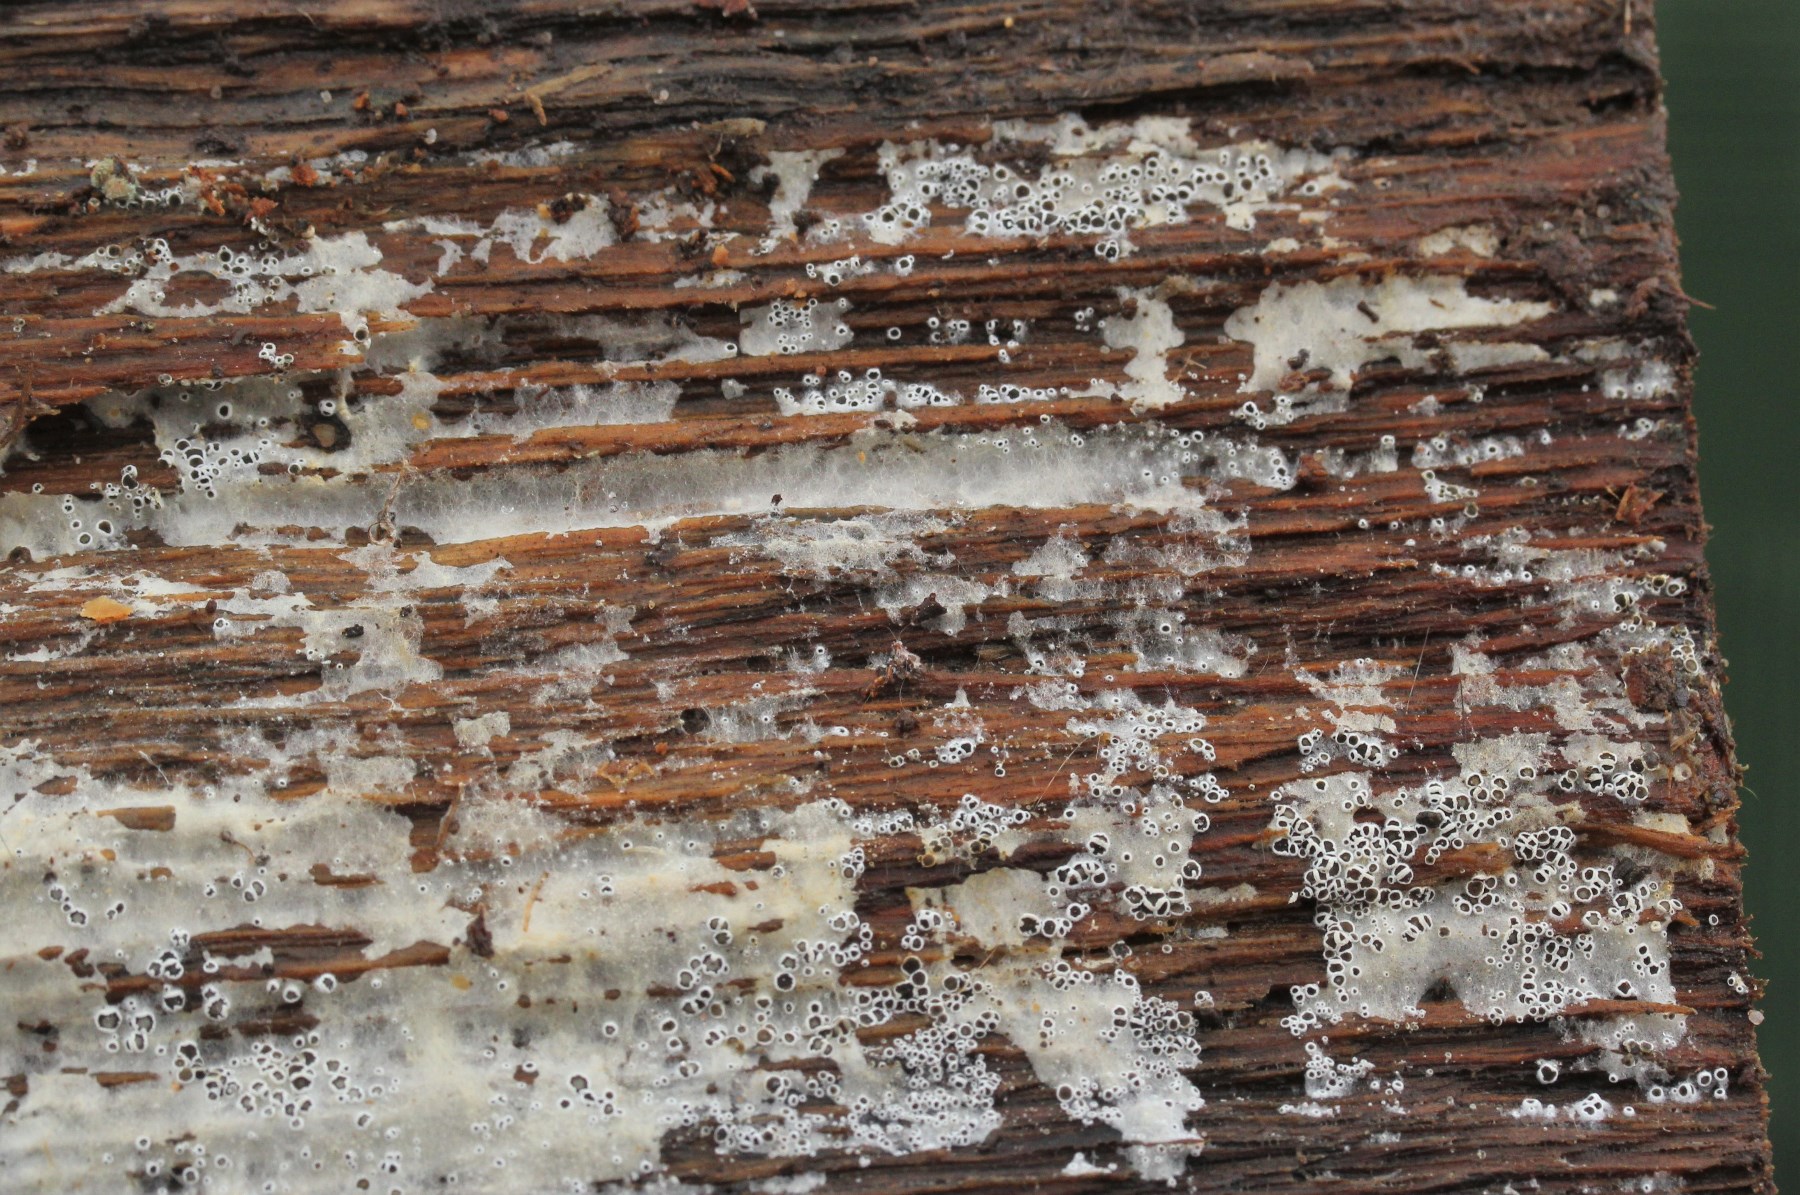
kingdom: Fungi
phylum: Ascomycota
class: Leotiomycetes
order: Helotiales
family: Arachnopezizaceae
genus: Eriopezia
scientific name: Eriopezia caesia
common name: ege-spindskive
